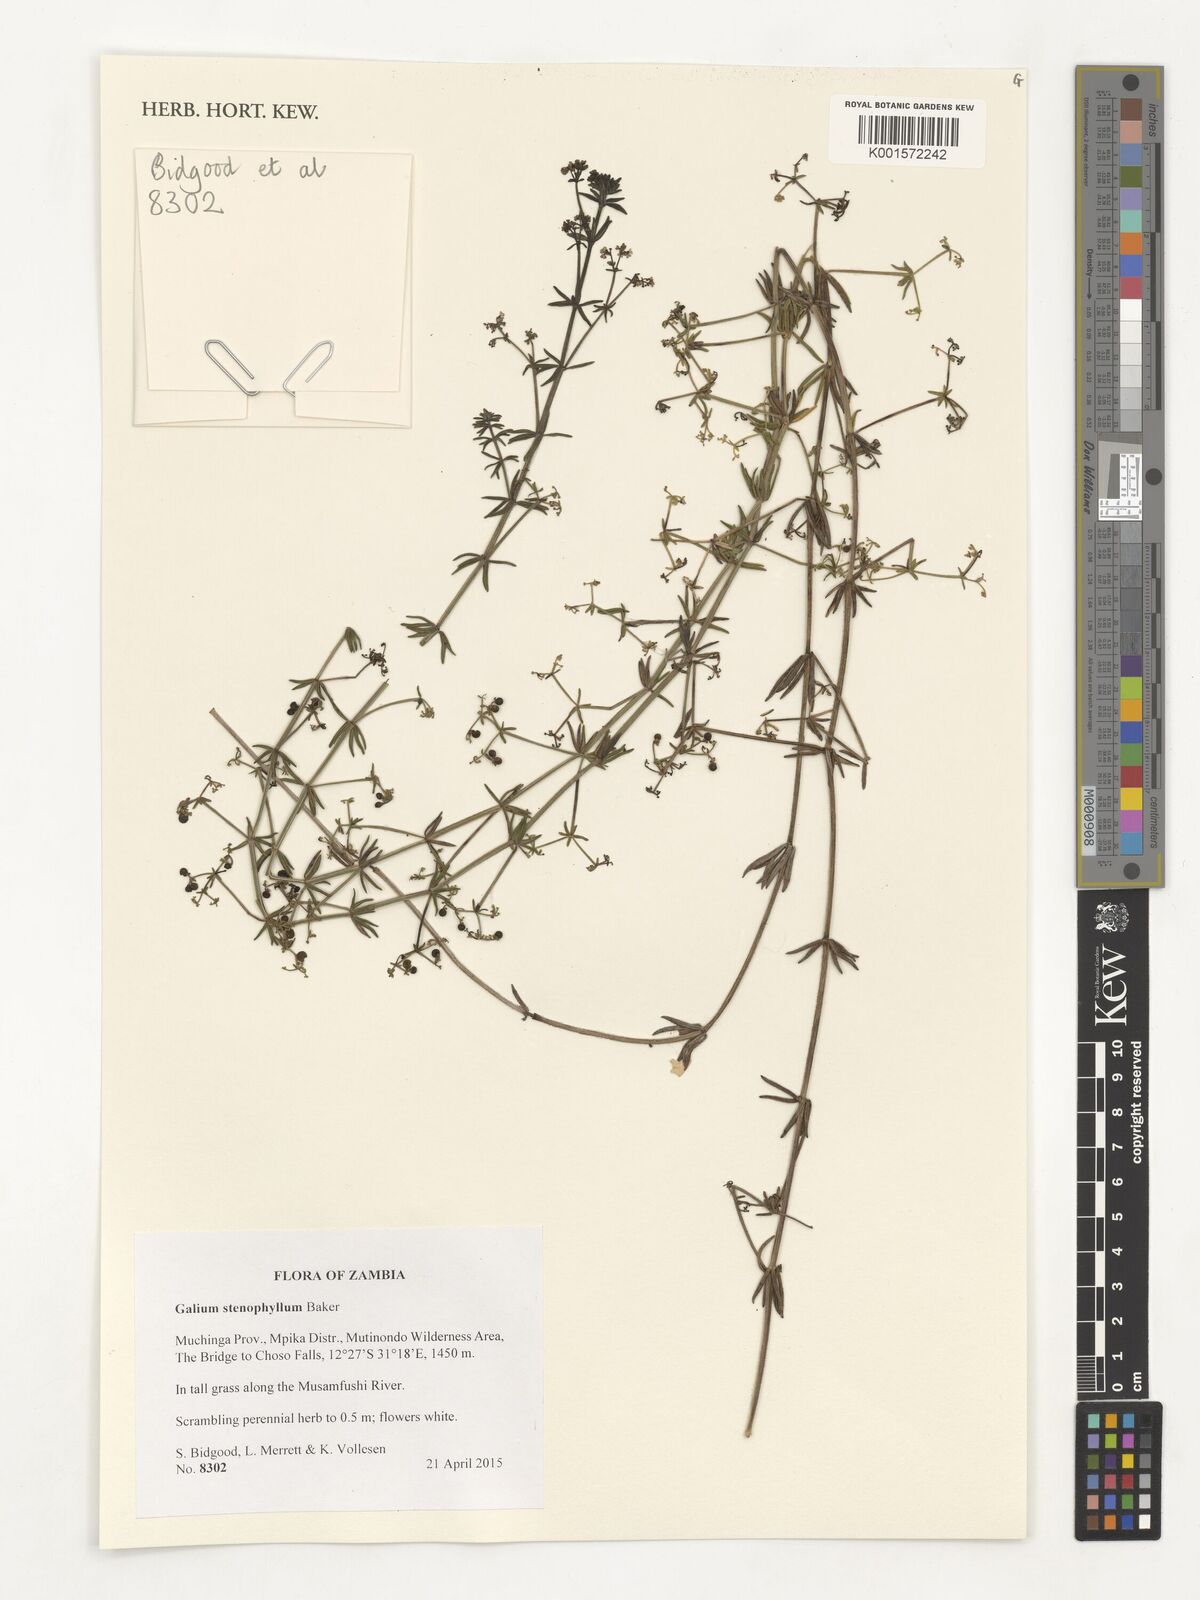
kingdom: Plantae
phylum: Tracheophyta
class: Magnoliopsida
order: Gentianales
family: Rubiaceae
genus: Galium
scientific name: Galium stenophyllum
